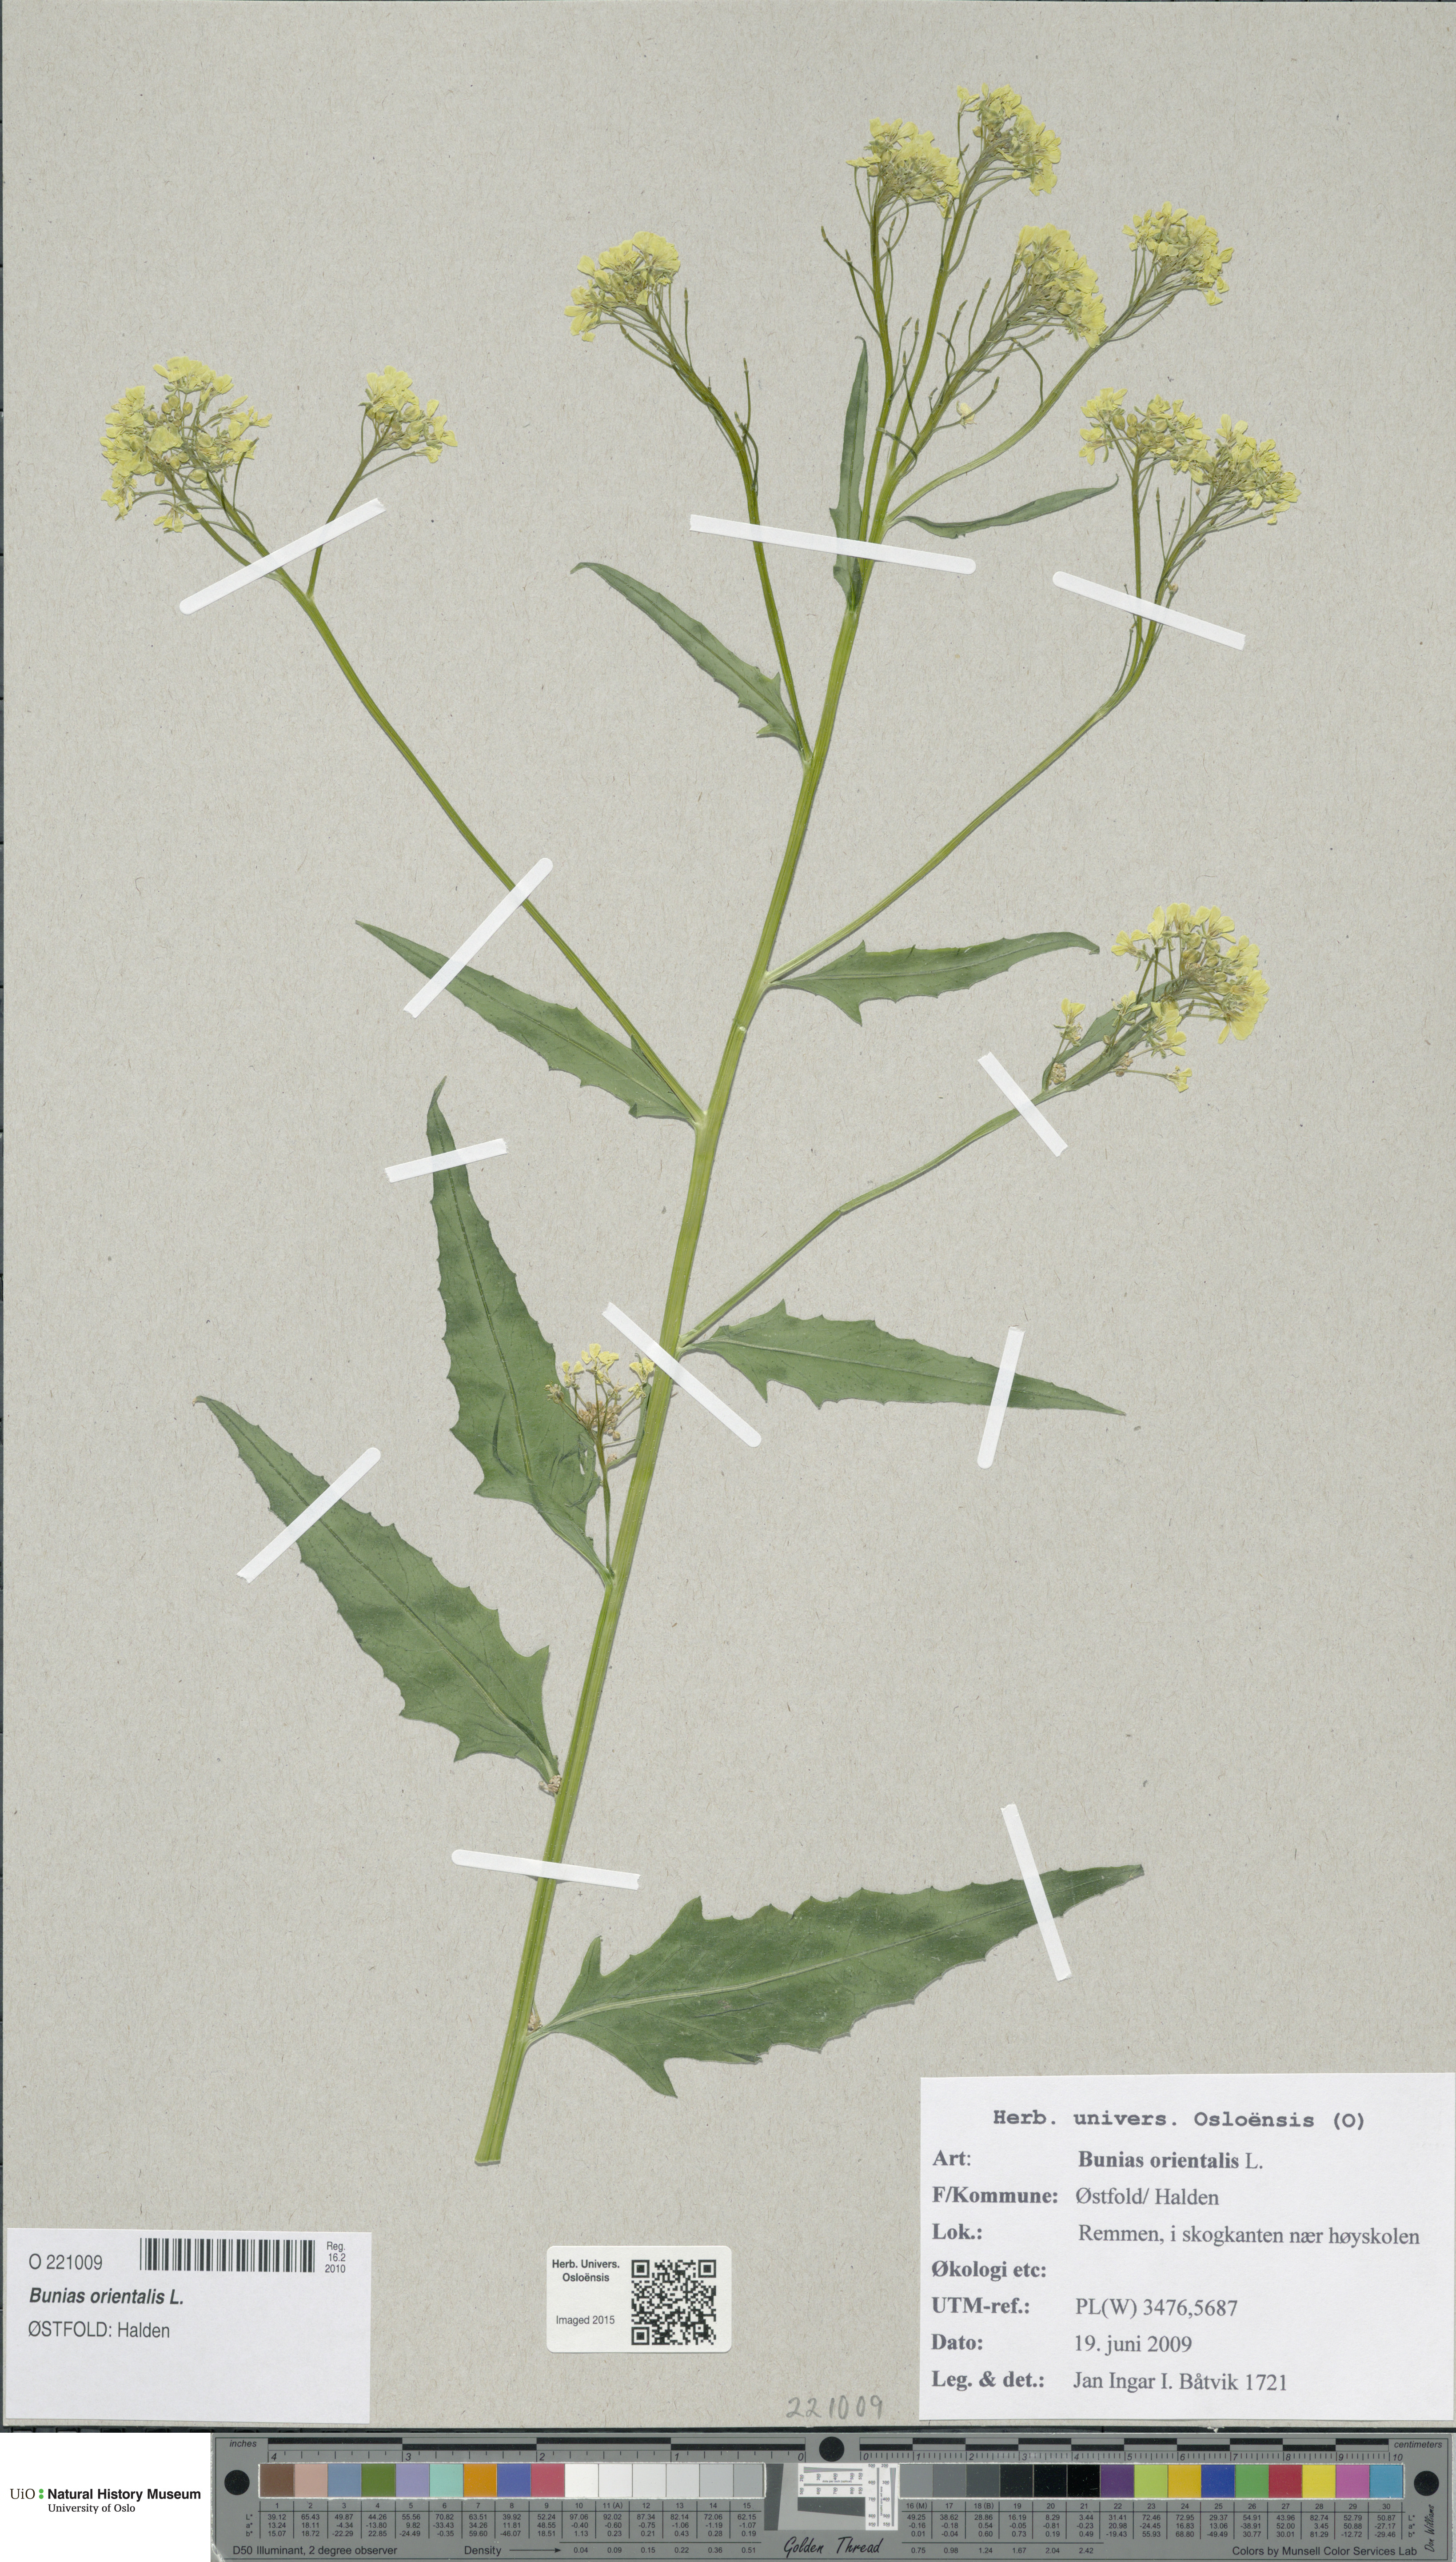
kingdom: Plantae
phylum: Tracheophyta
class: Magnoliopsida
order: Brassicales
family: Brassicaceae
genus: Bunias
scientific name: Bunias orientalis
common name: Warty-cabbage
